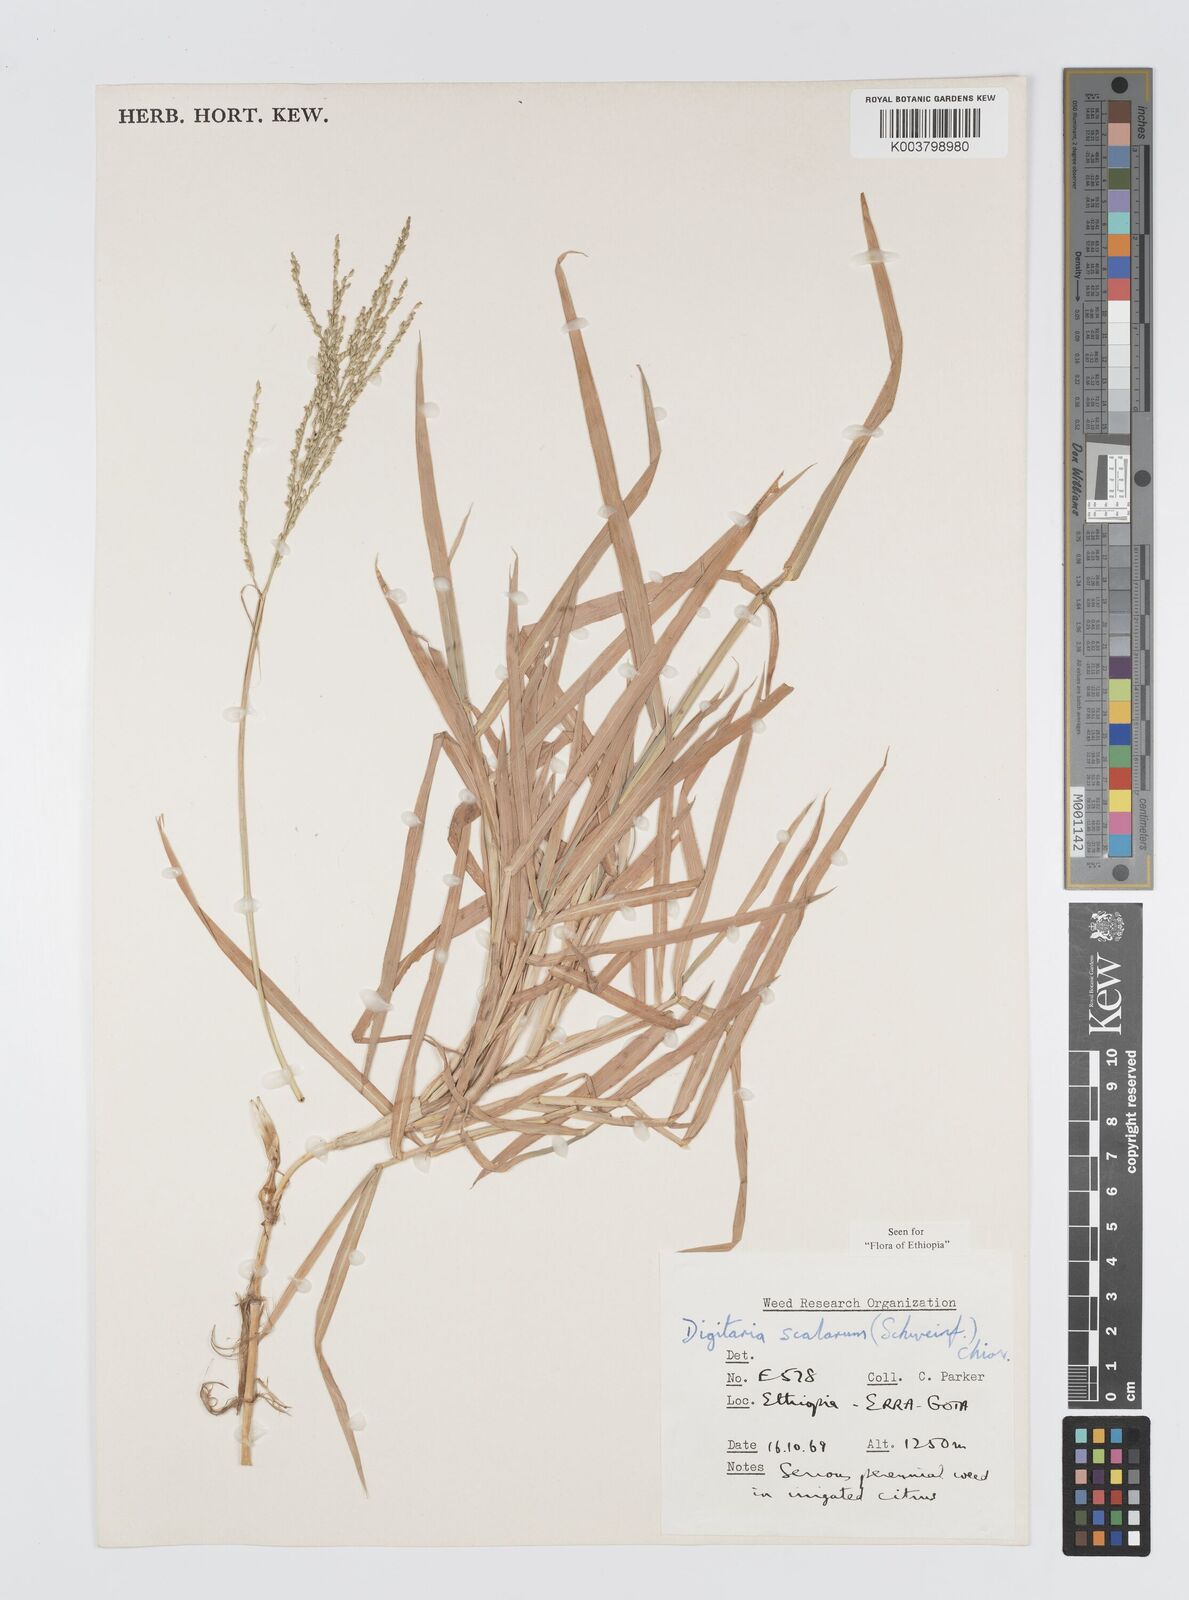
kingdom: Plantae
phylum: Tracheophyta
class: Liliopsida
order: Poales
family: Poaceae
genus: Digitaria
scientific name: Digitaria abyssinica
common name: African couchgrass
